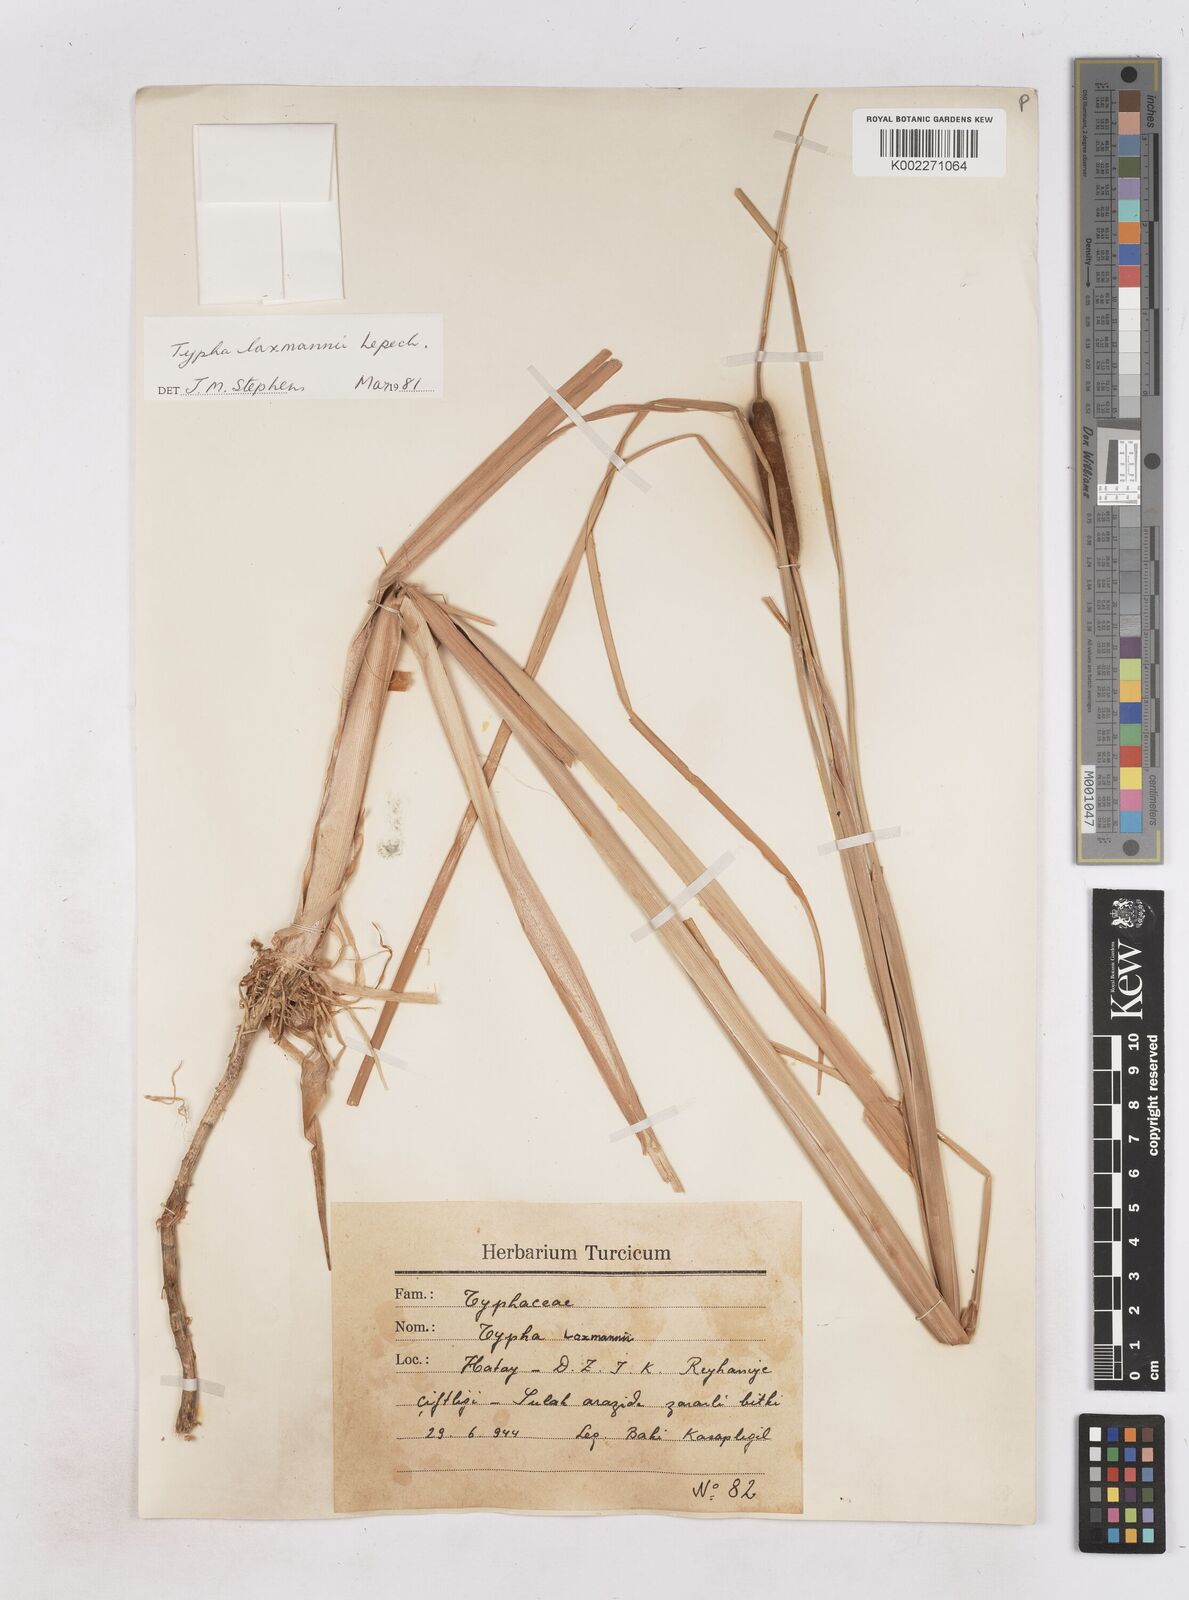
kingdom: Plantae
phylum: Tracheophyta
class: Liliopsida
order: Poales
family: Typhaceae
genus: Typha
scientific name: Typha laxmannii
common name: Laxman’s bulrush
